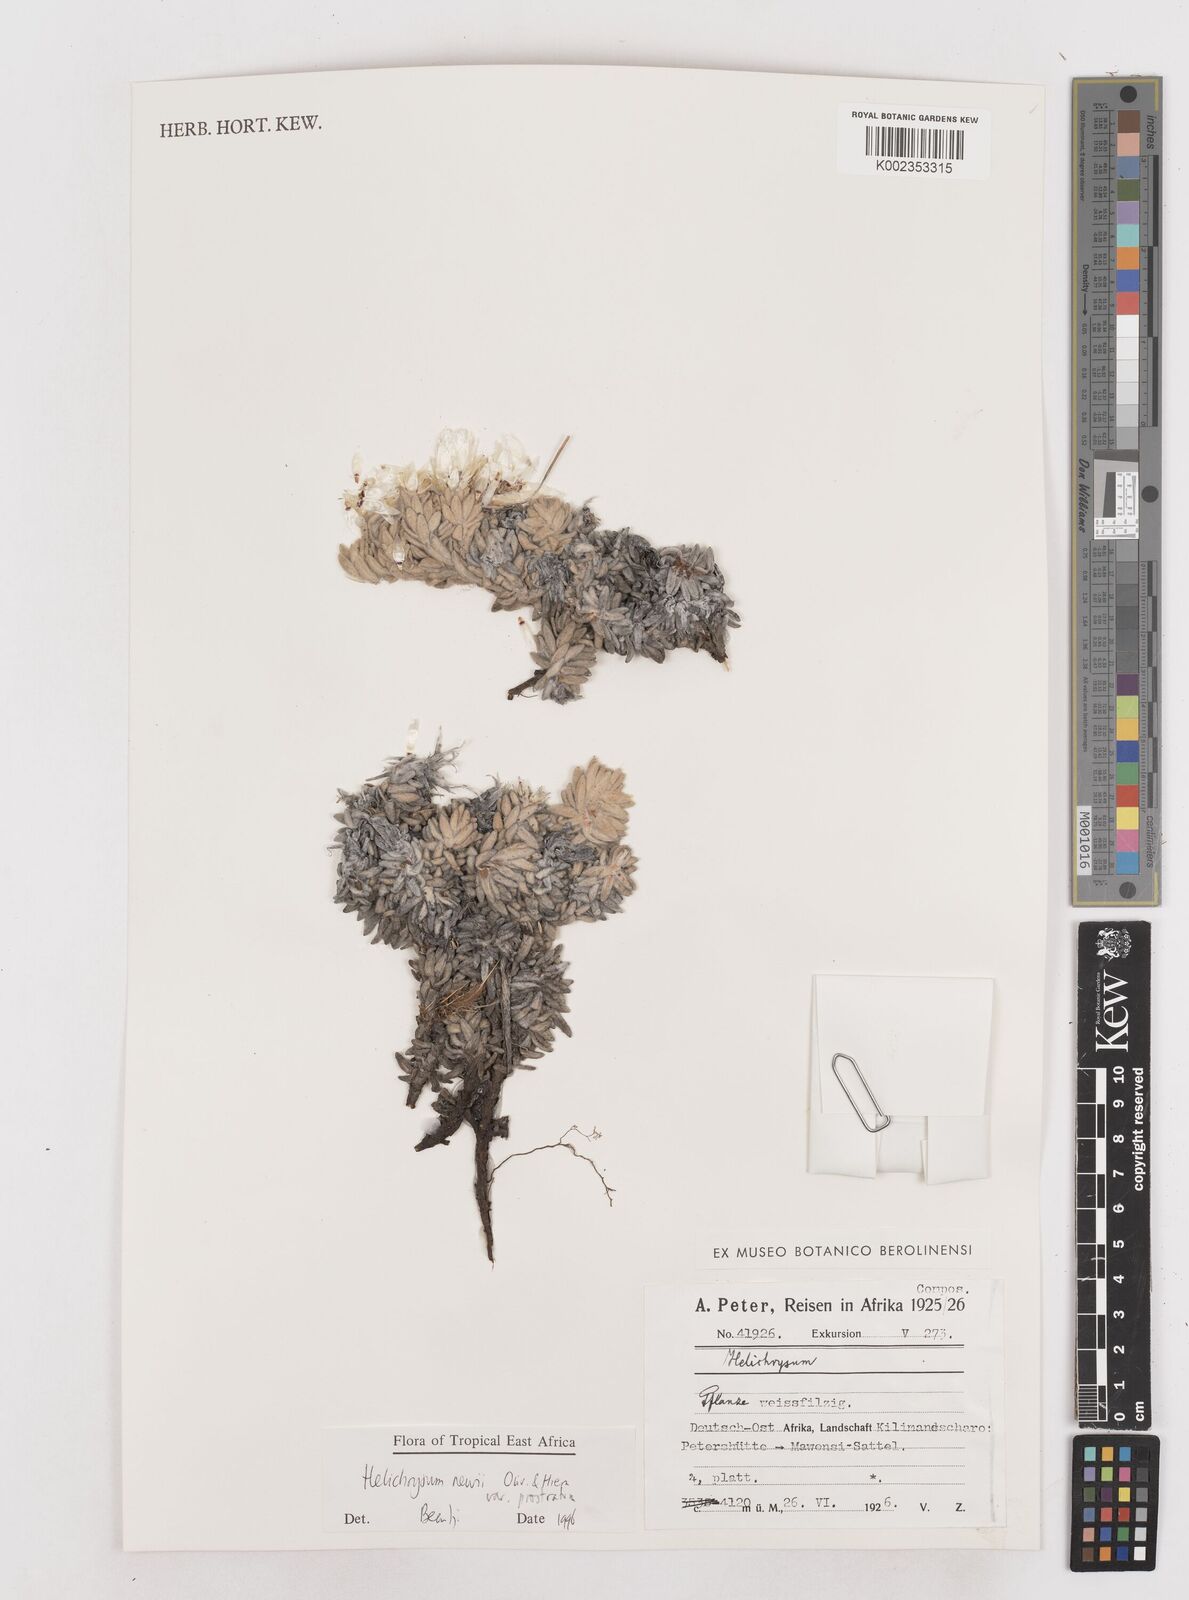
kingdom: Plantae
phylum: Tracheophyta
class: Magnoliopsida
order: Asterales
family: Asteraceae
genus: Helichrysum
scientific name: Helichrysum newii
